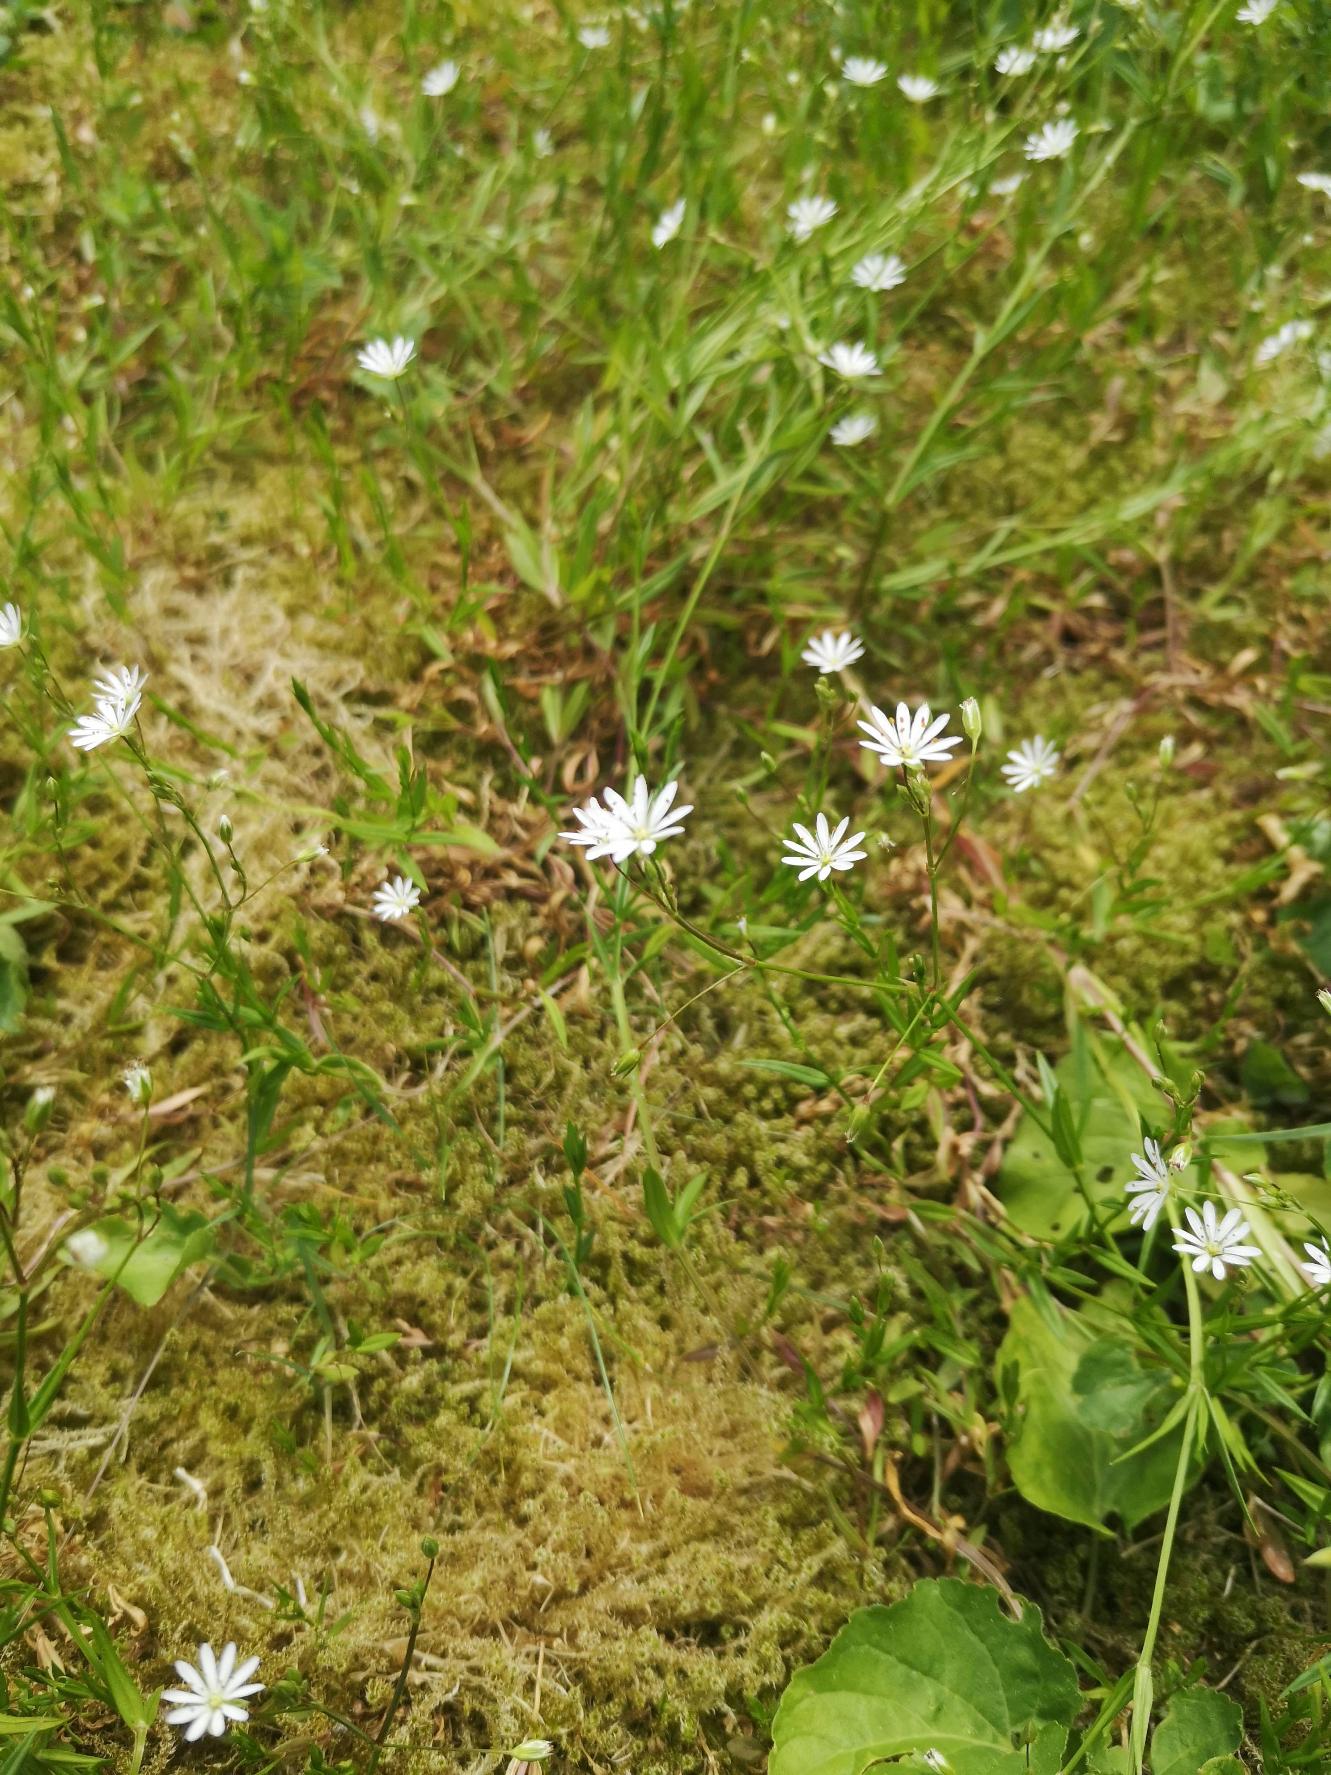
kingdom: Plantae
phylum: Tracheophyta
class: Magnoliopsida
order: Caryophyllales
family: Caryophyllaceae
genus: Stellaria
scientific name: Stellaria graminea
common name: Græsbladet fladstjerne
